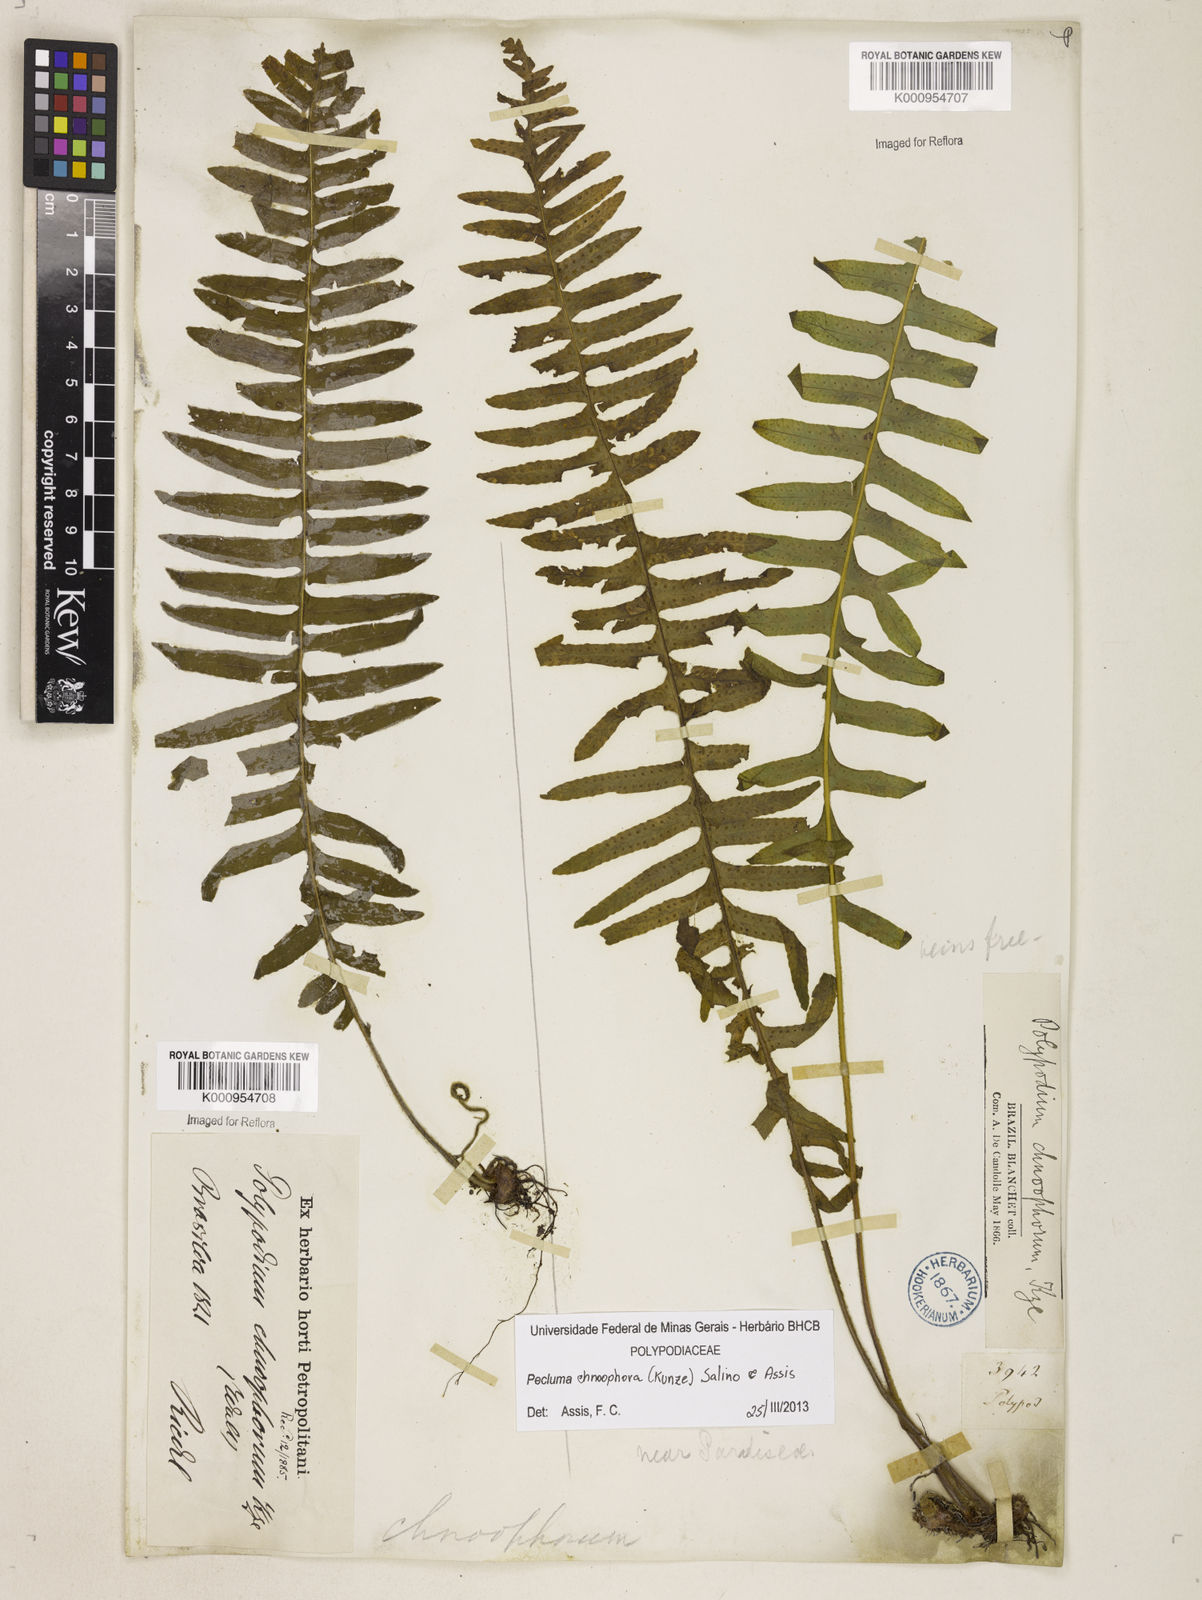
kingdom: Plantae
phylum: Tracheophyta
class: Polypodiopsida
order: Polypodiales
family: Polypodiaceae
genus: Pecluma
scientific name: Pecluma chnoophora
